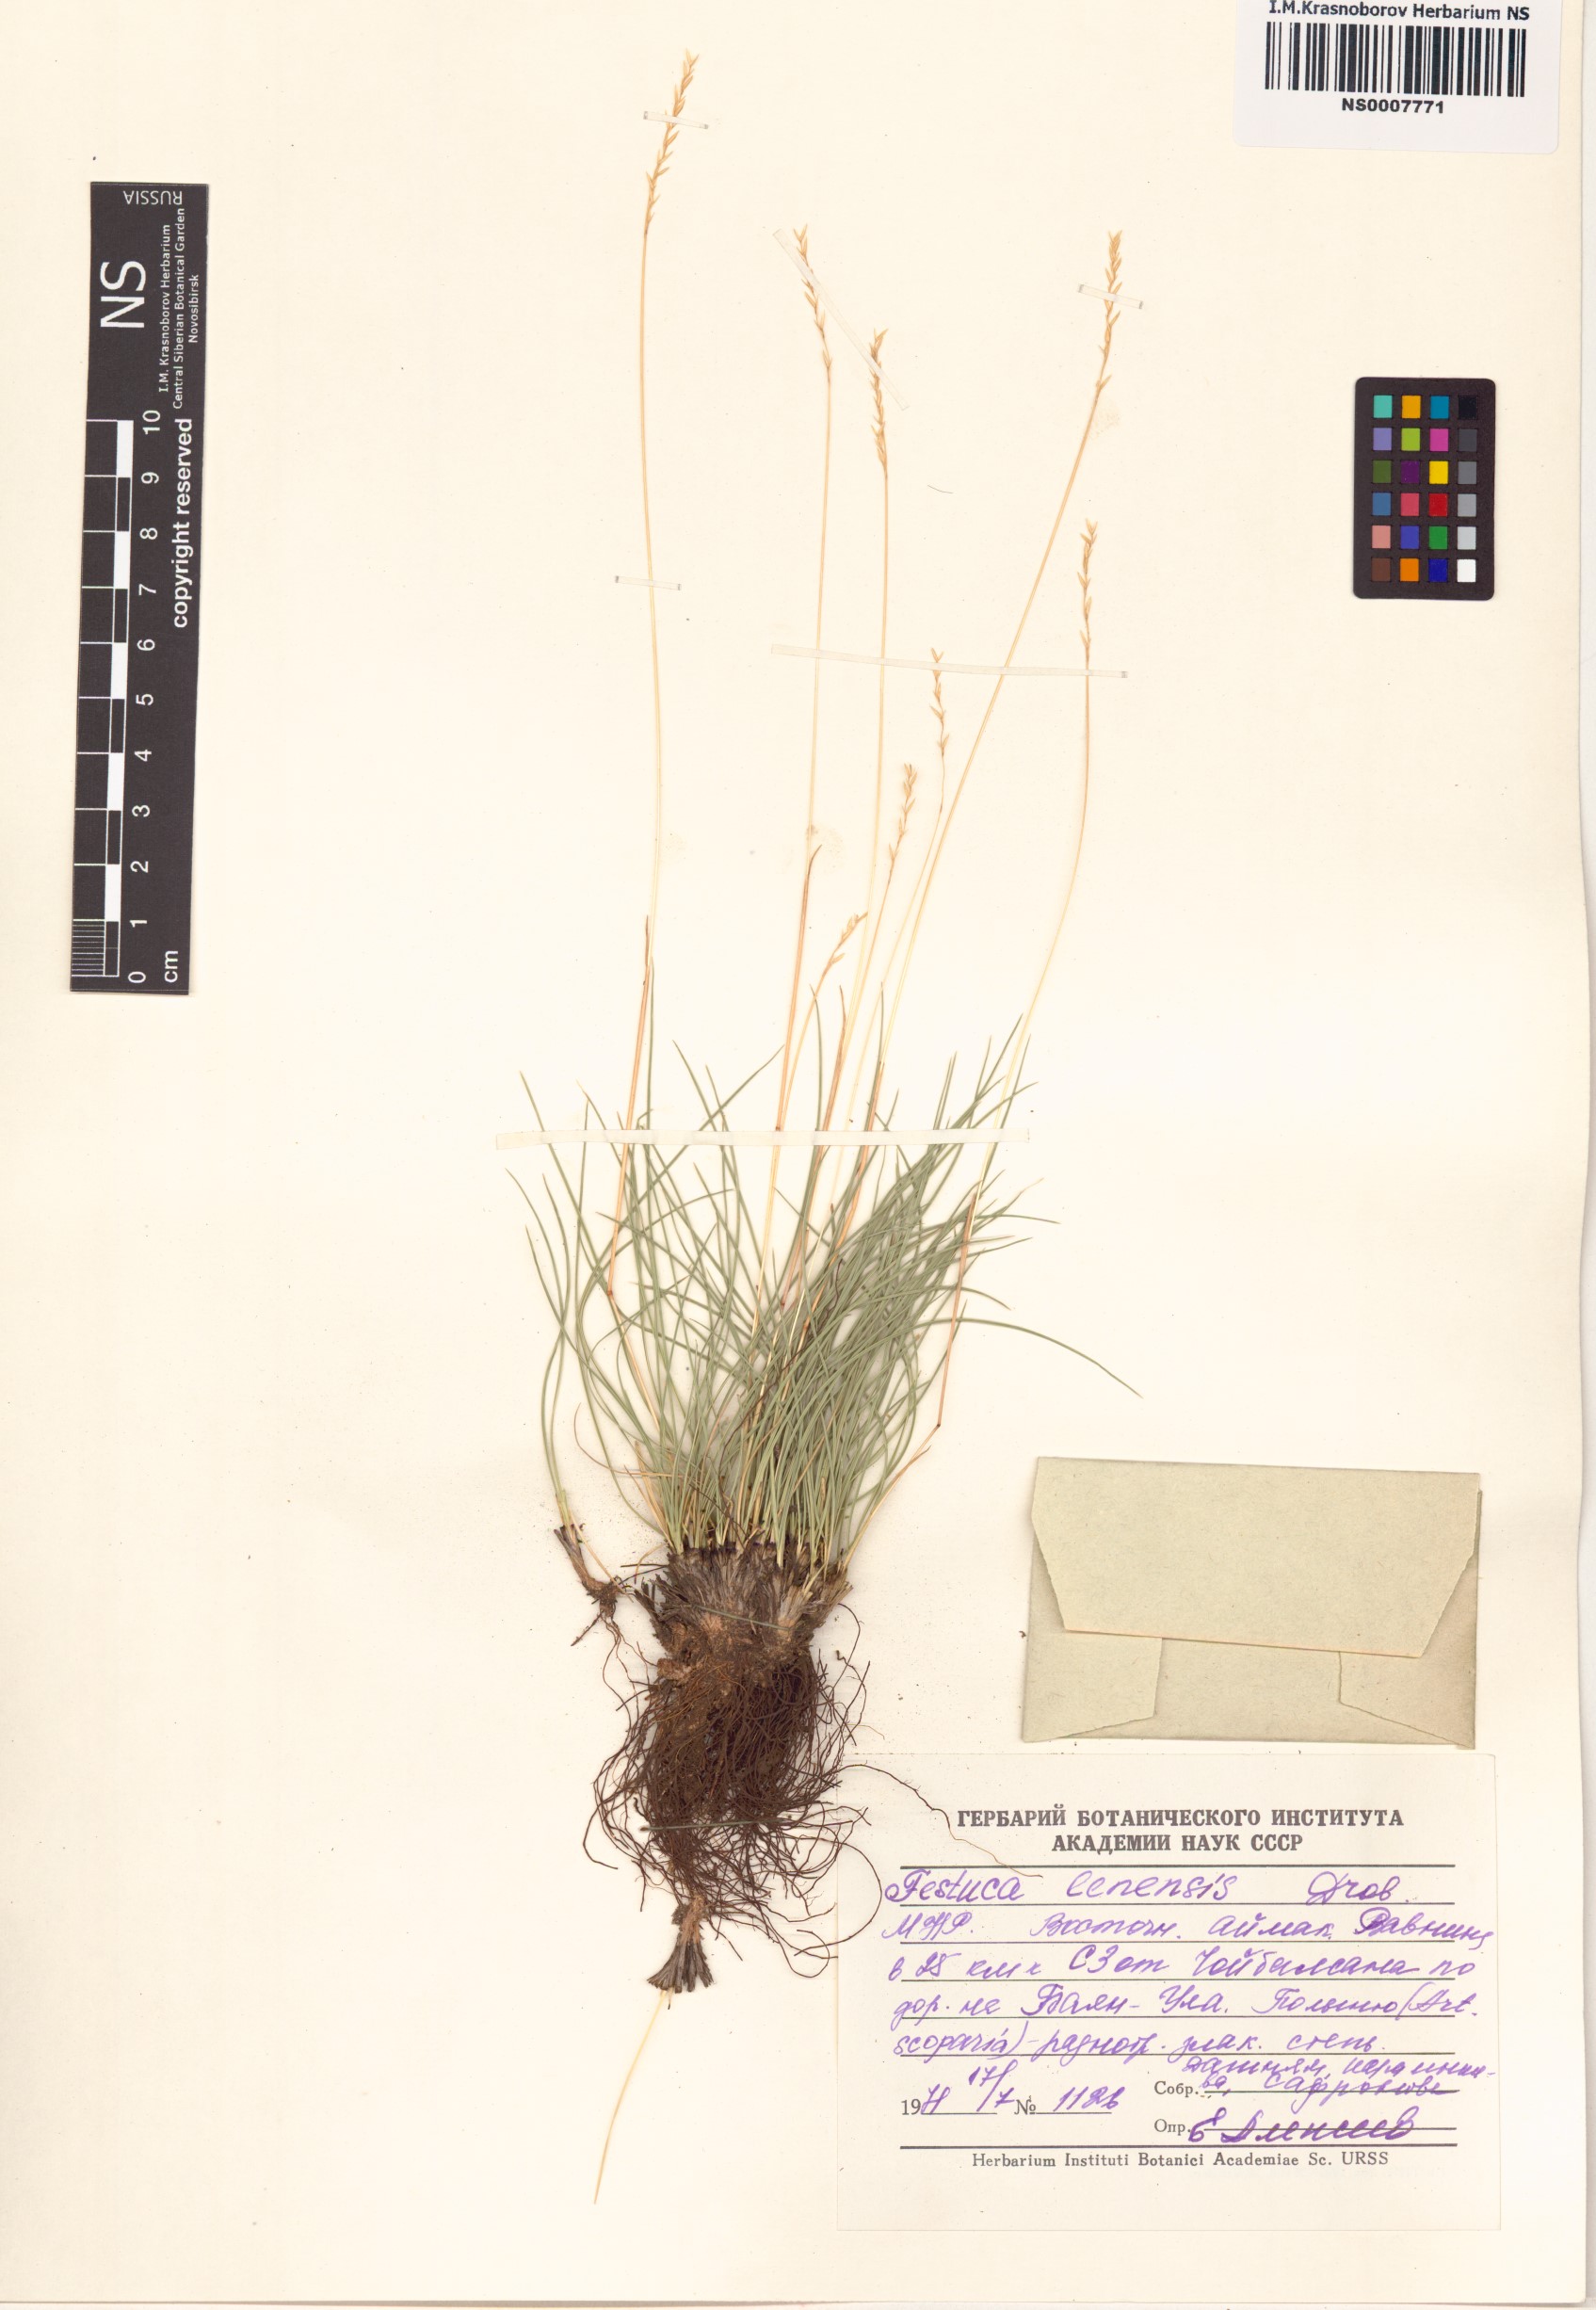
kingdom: Plantae
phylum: Tracheophyta
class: Liliopsida
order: Poales
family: Poaceae
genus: Festuca
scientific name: Festuca lenensis
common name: Lena river fescue
